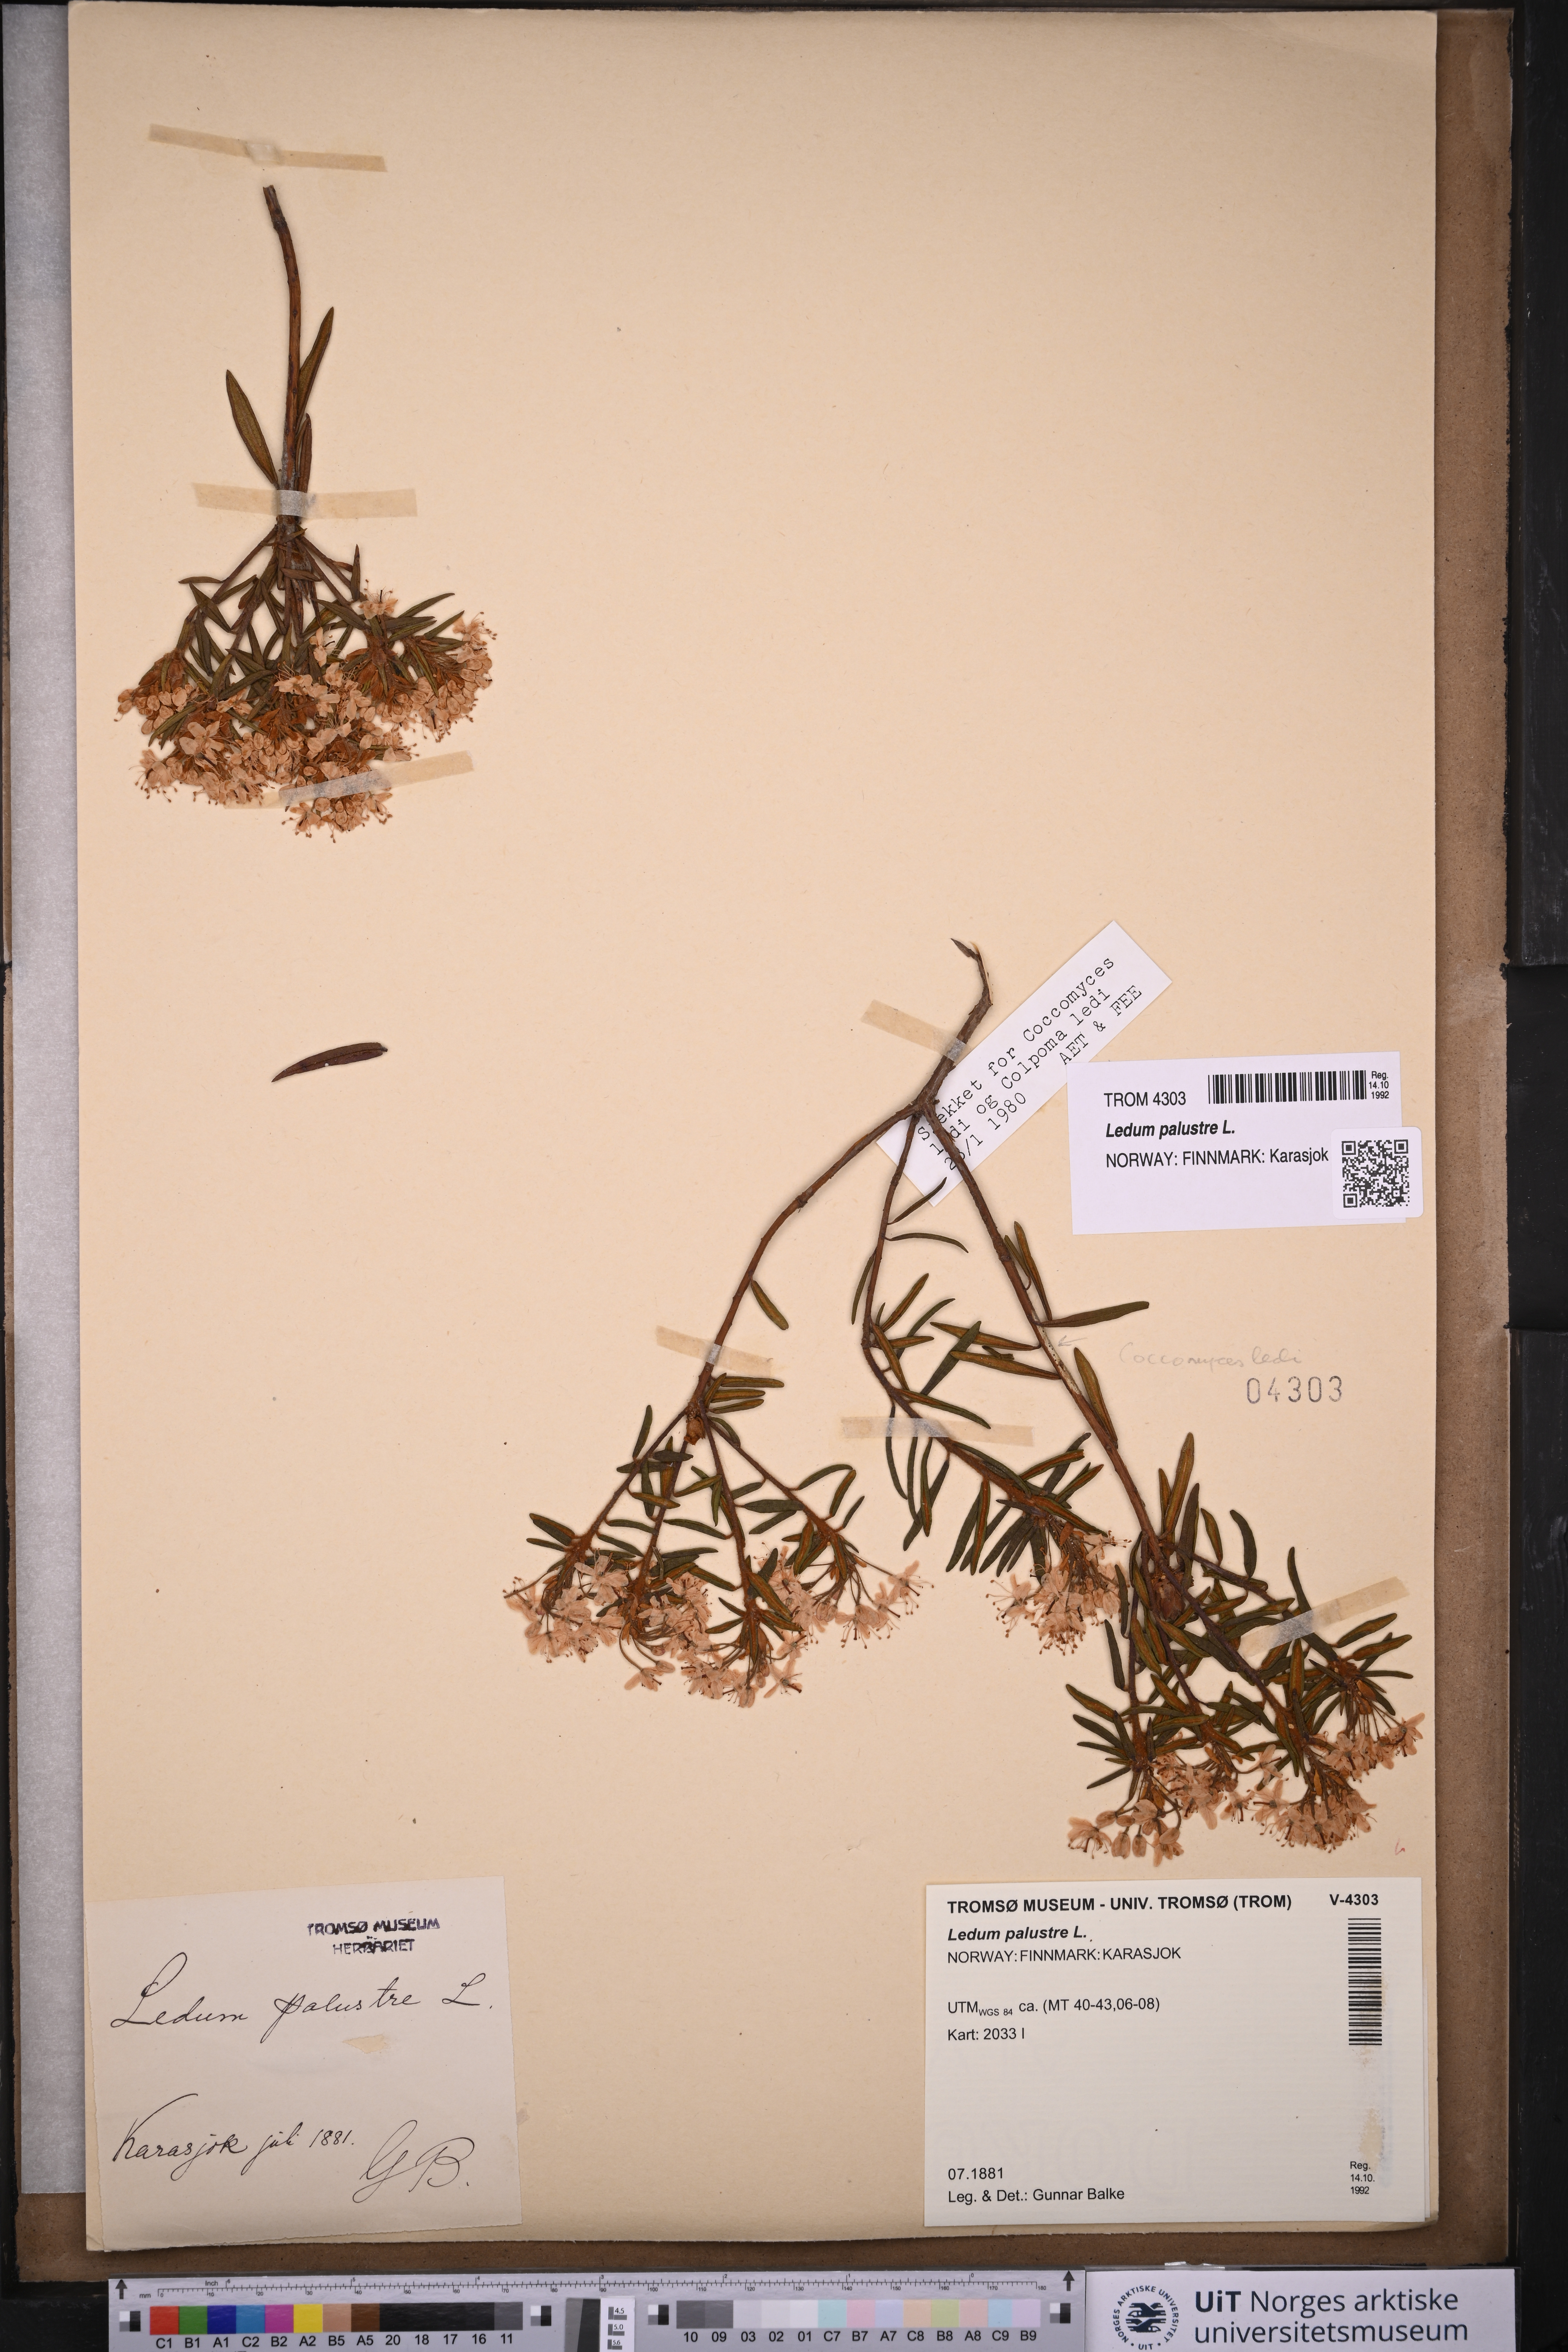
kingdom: Plantae
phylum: Tracheophyta
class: Magnoliopsida
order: Ericales
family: Ericaceae
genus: Rhododendron
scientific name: Rhododendron tomentosum
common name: Marsh labrador tea
